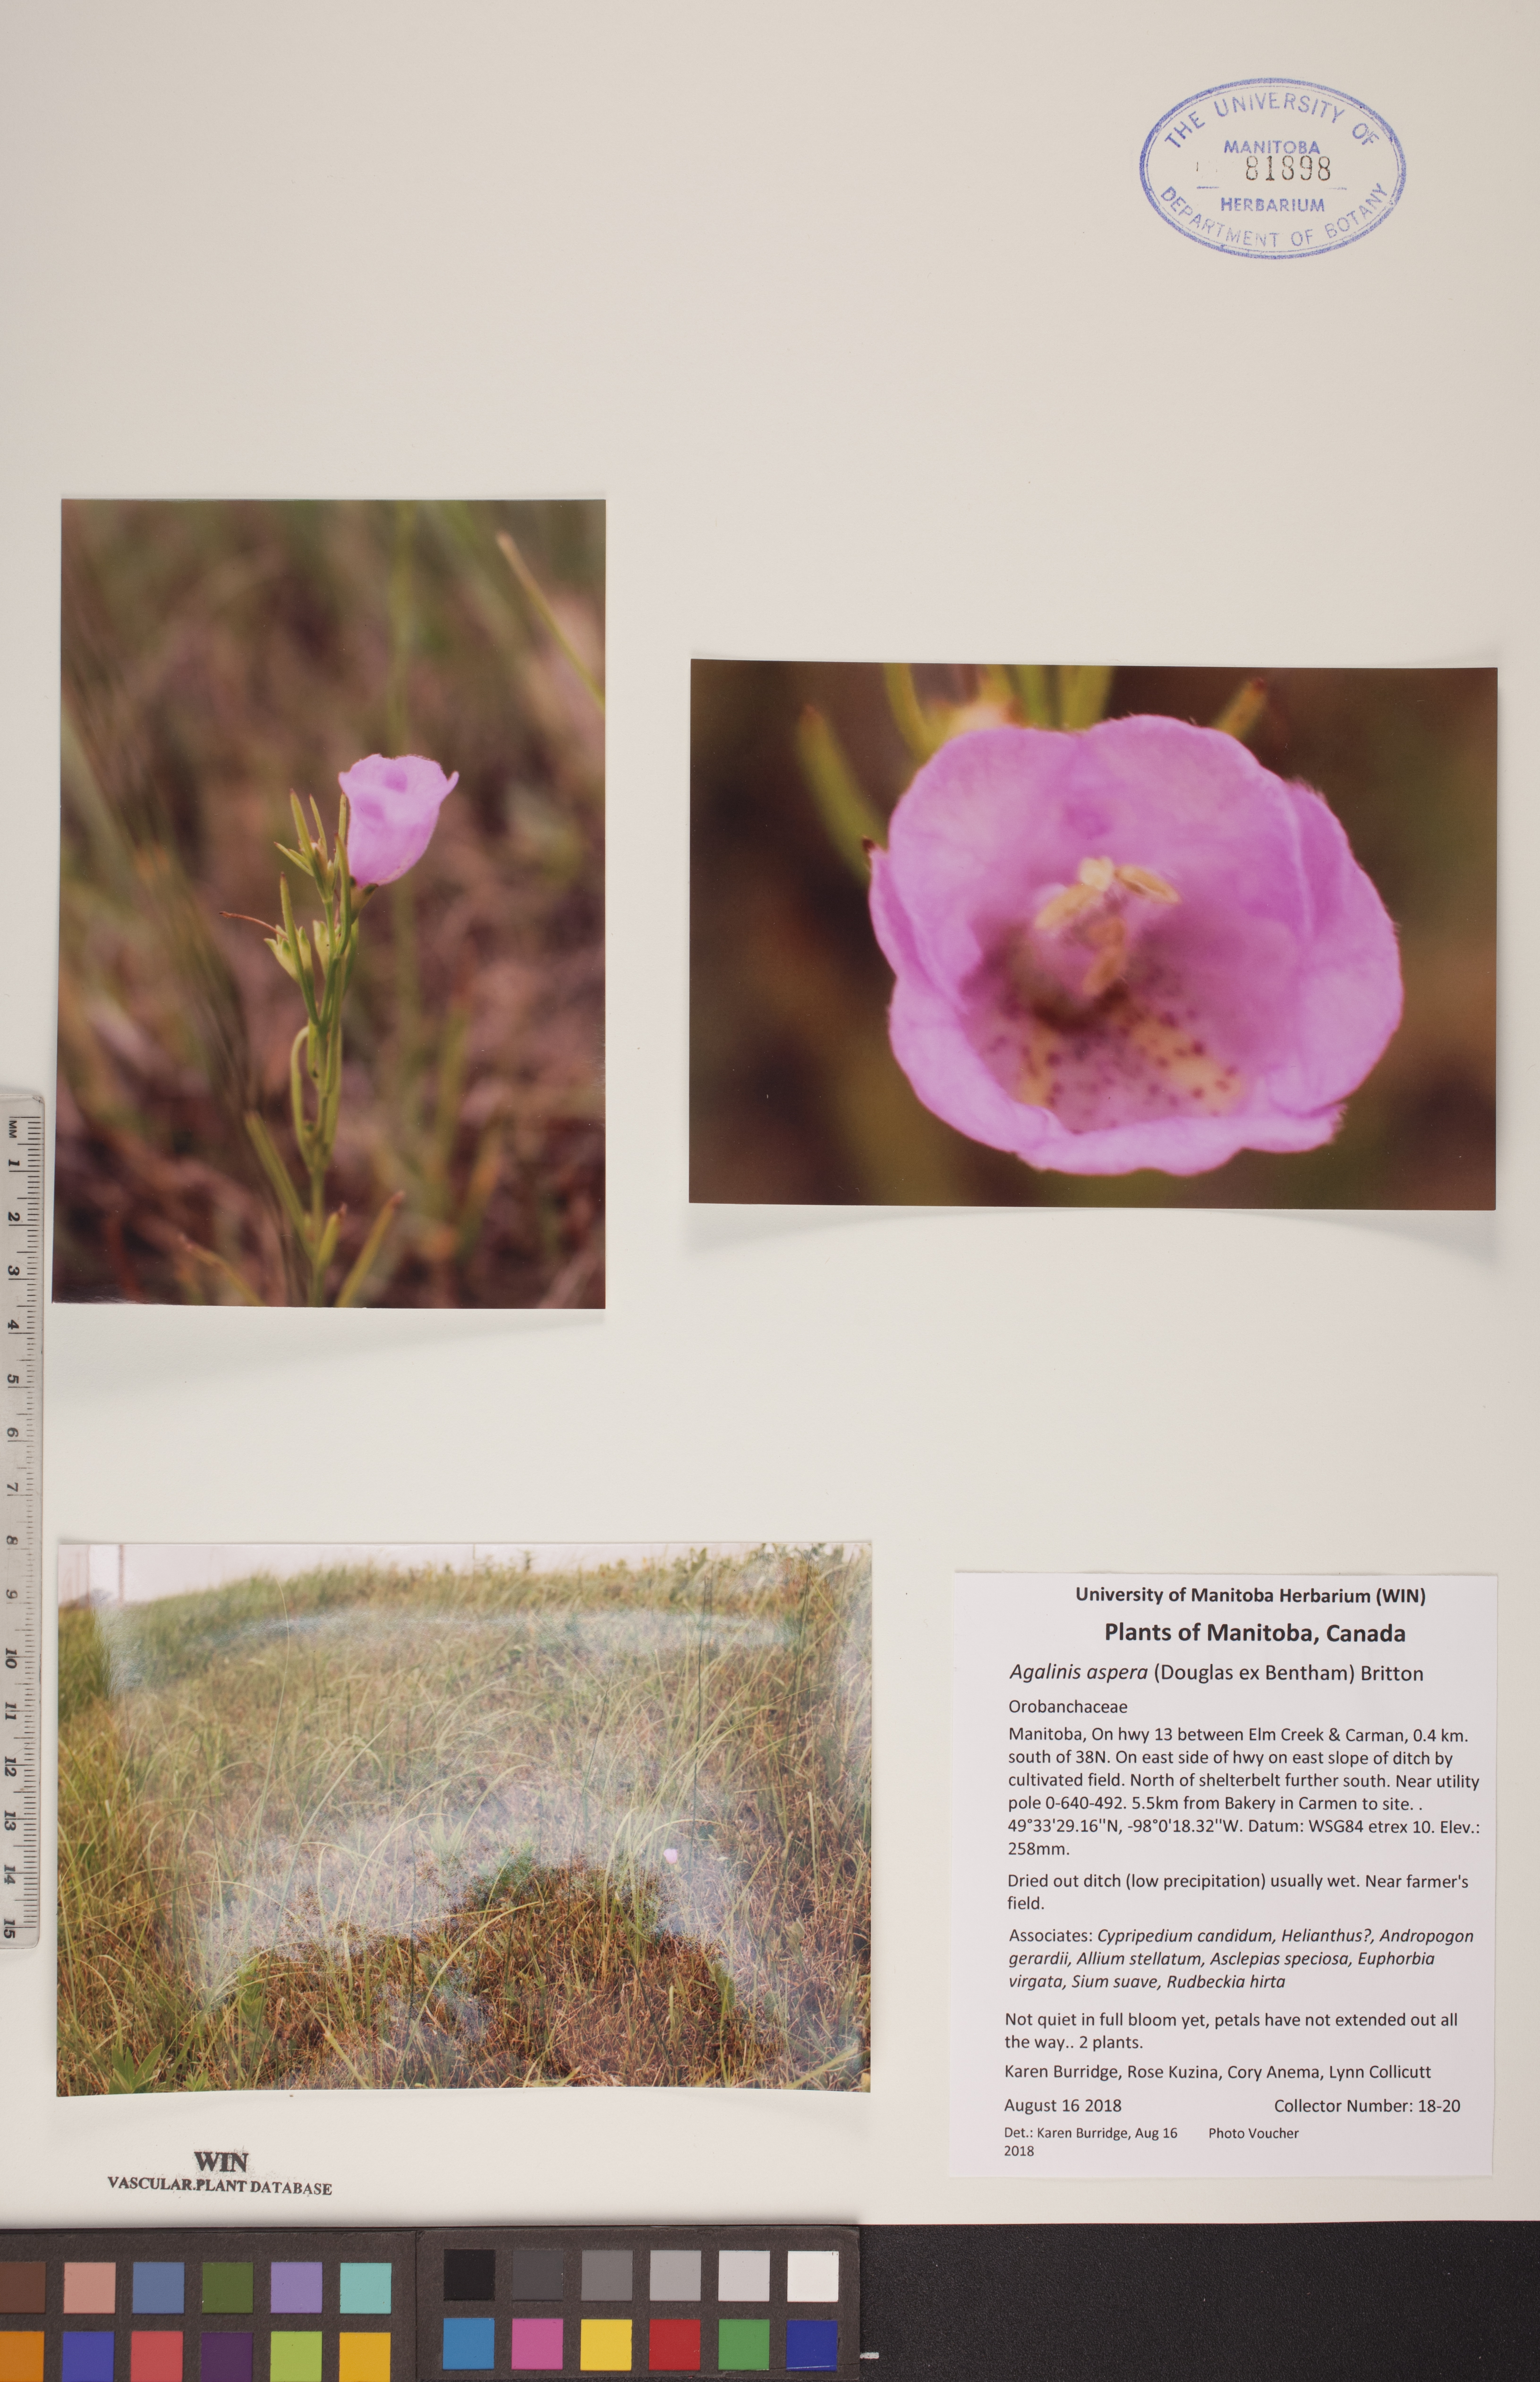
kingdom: Plantae
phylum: Tracheophyta
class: Magnoliopsida
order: Lamiales
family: Orobanchaceae
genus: Agalinis
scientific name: Agalinis aspera
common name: Rough agalinis
